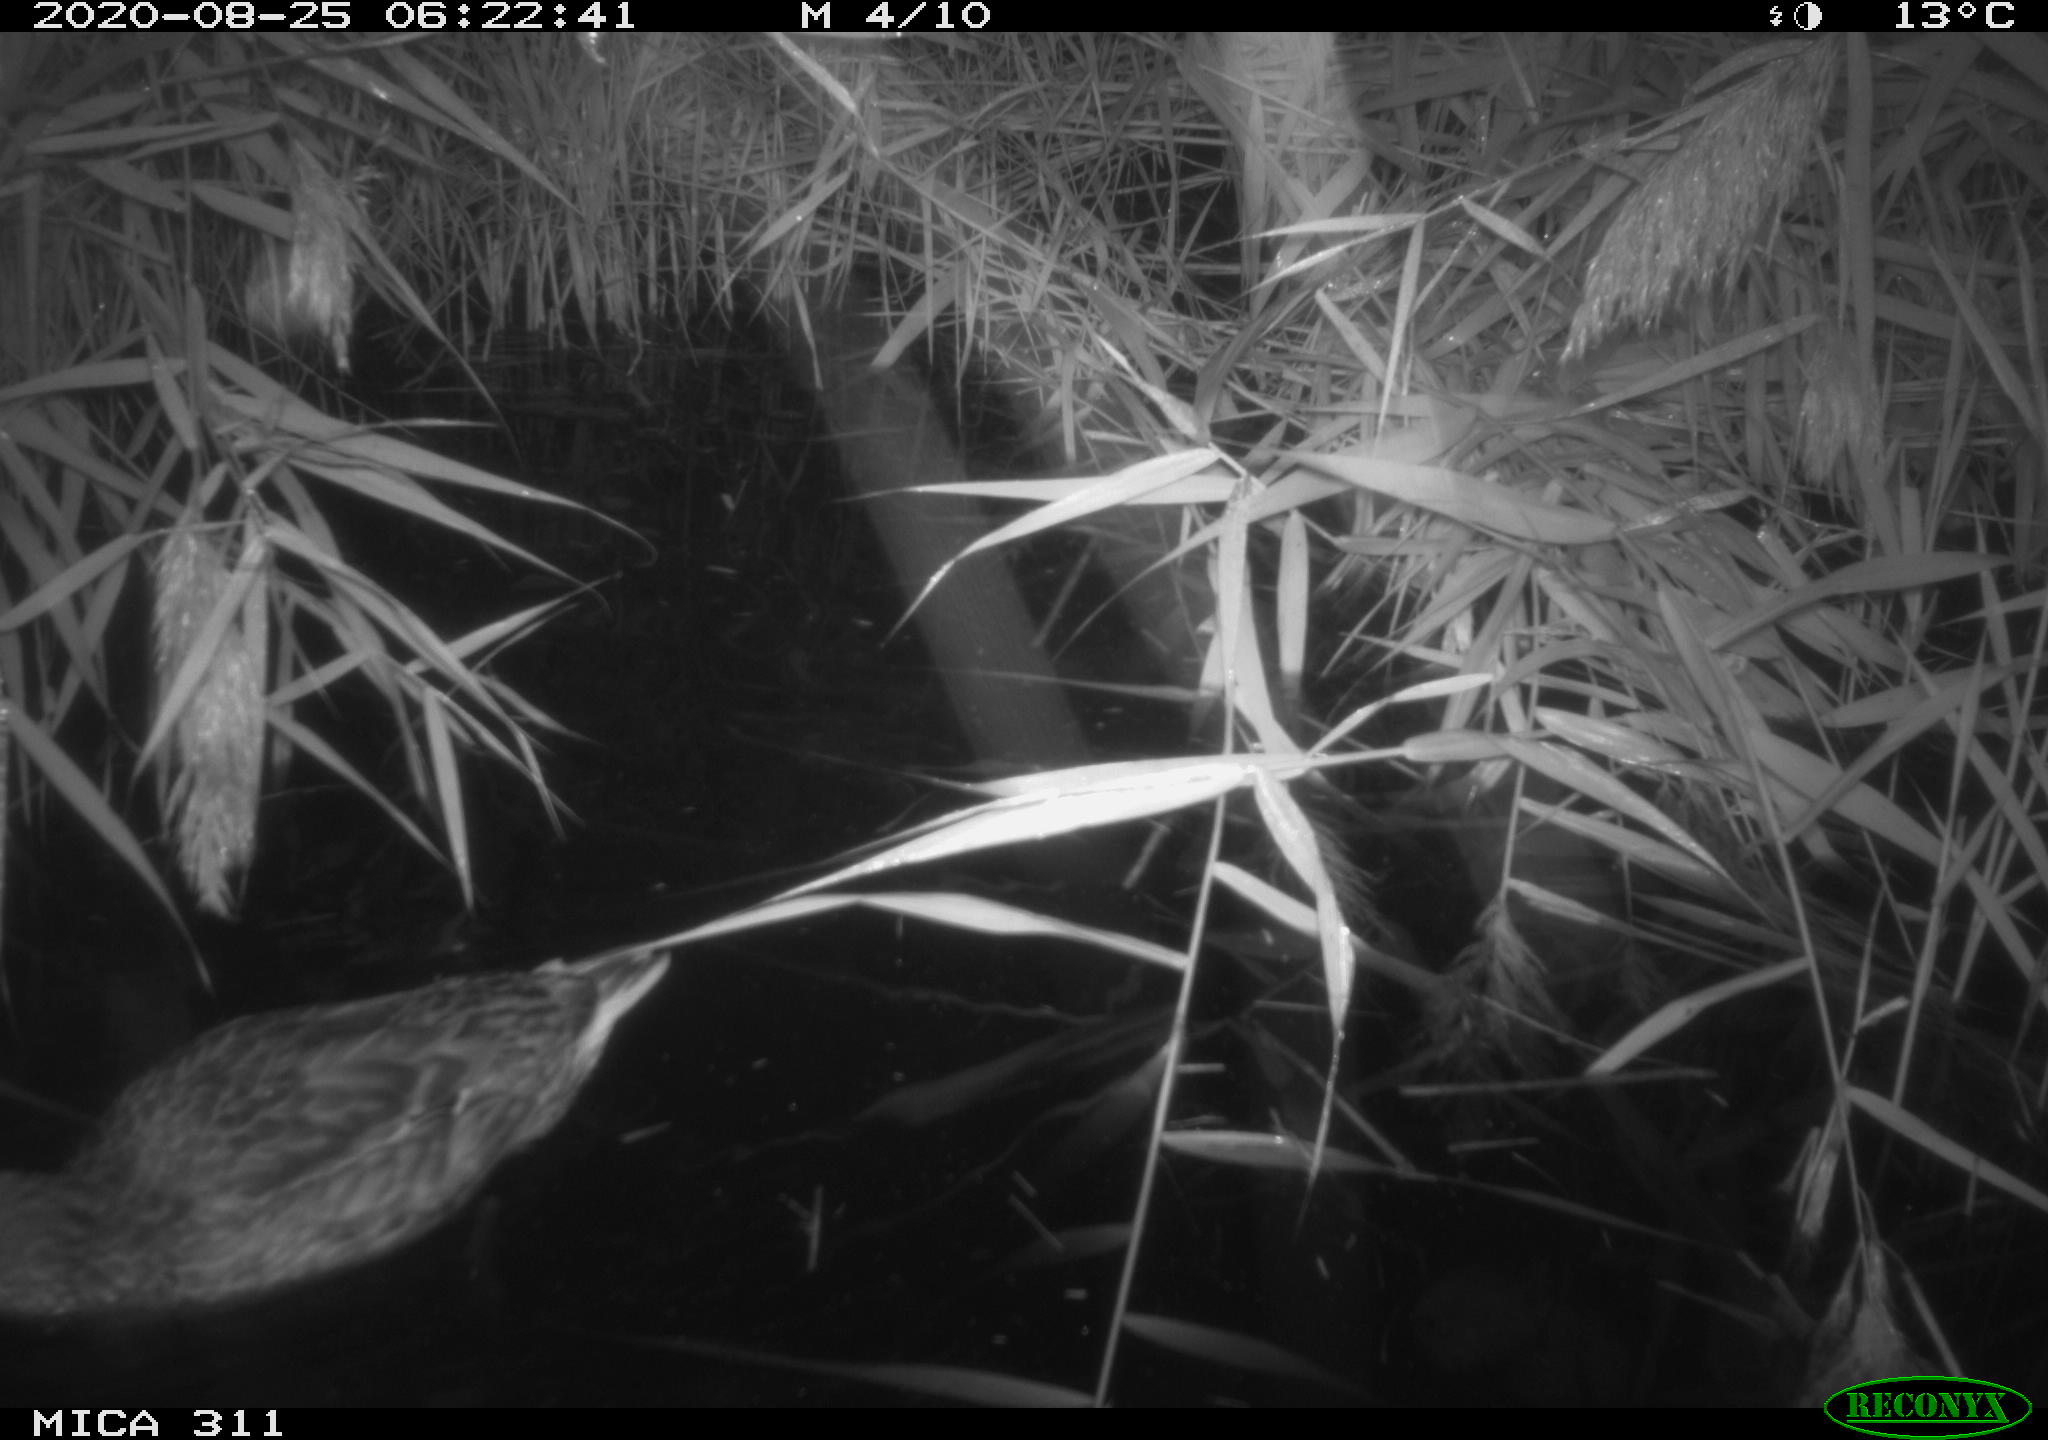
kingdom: Animalia
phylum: Chordata
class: Aves
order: Anseriformes
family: Anatidae
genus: Anas
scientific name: Anas platyrhynchos
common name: Mallard
